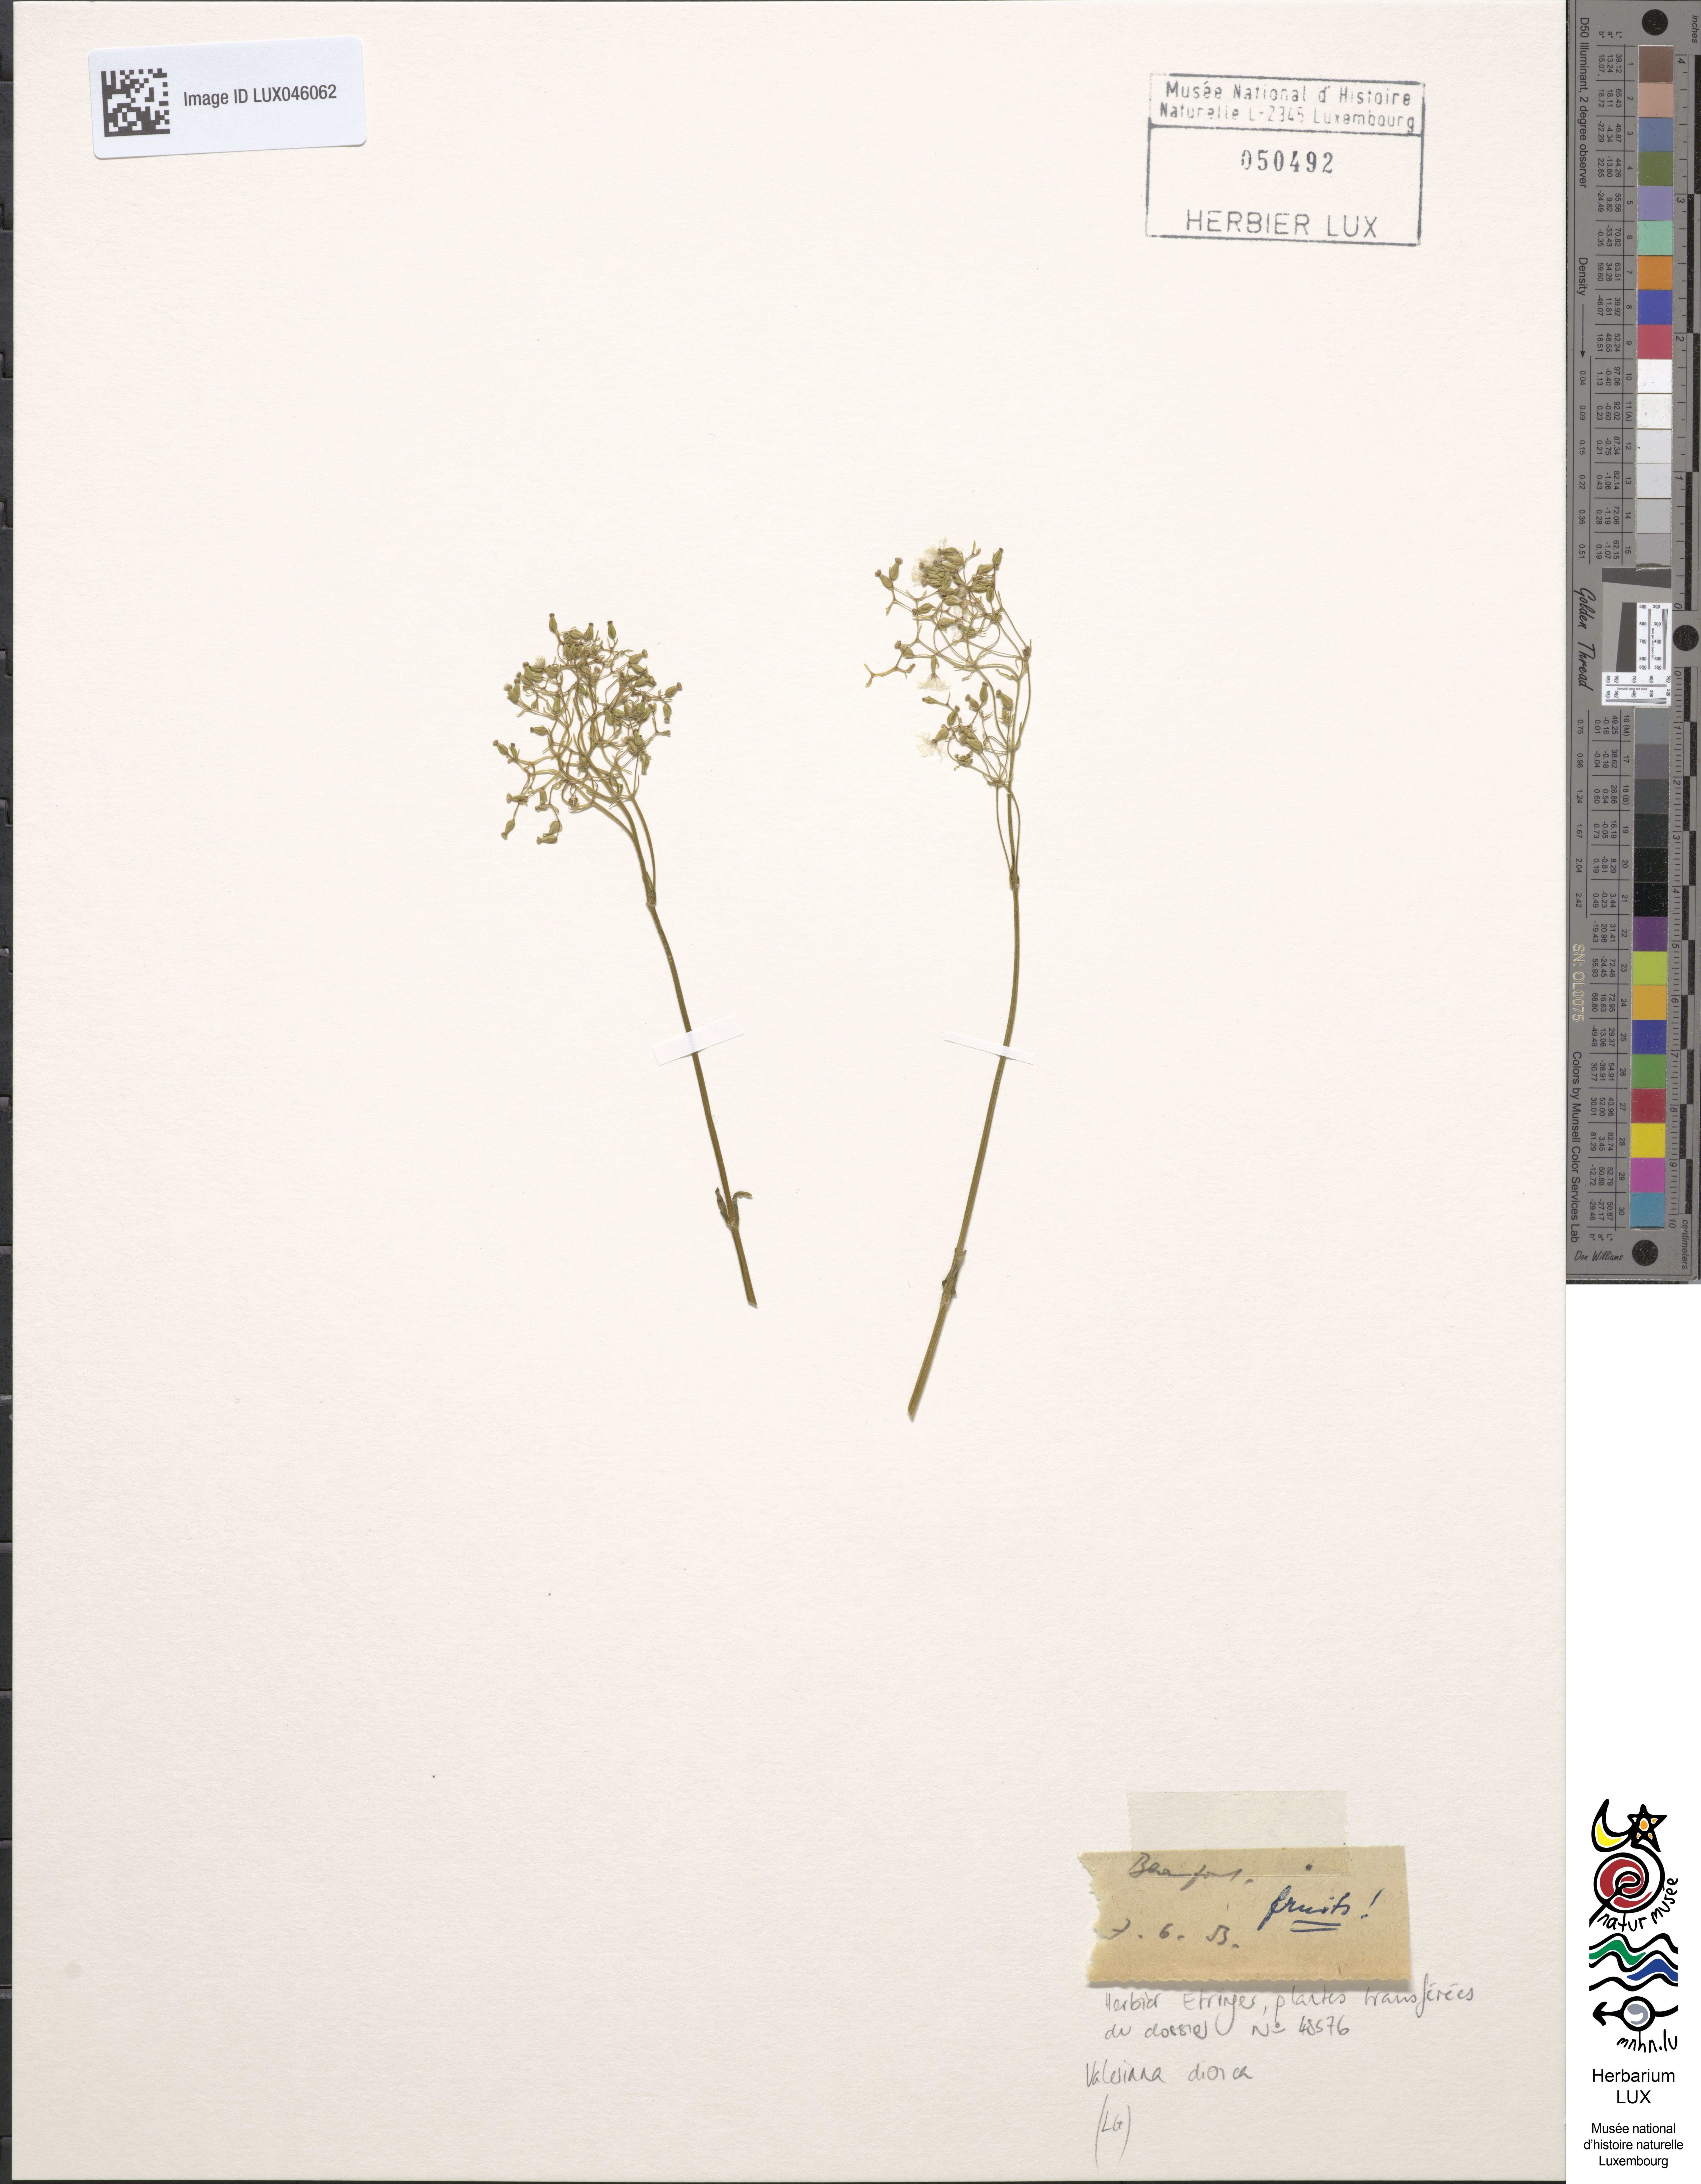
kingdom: Plantae
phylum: Tracheophyta
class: Magnoliopsida
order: Dipsacales
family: Caprifoliaceae
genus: Valeriana
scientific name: Valeriana dioica
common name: Marsh valerian
